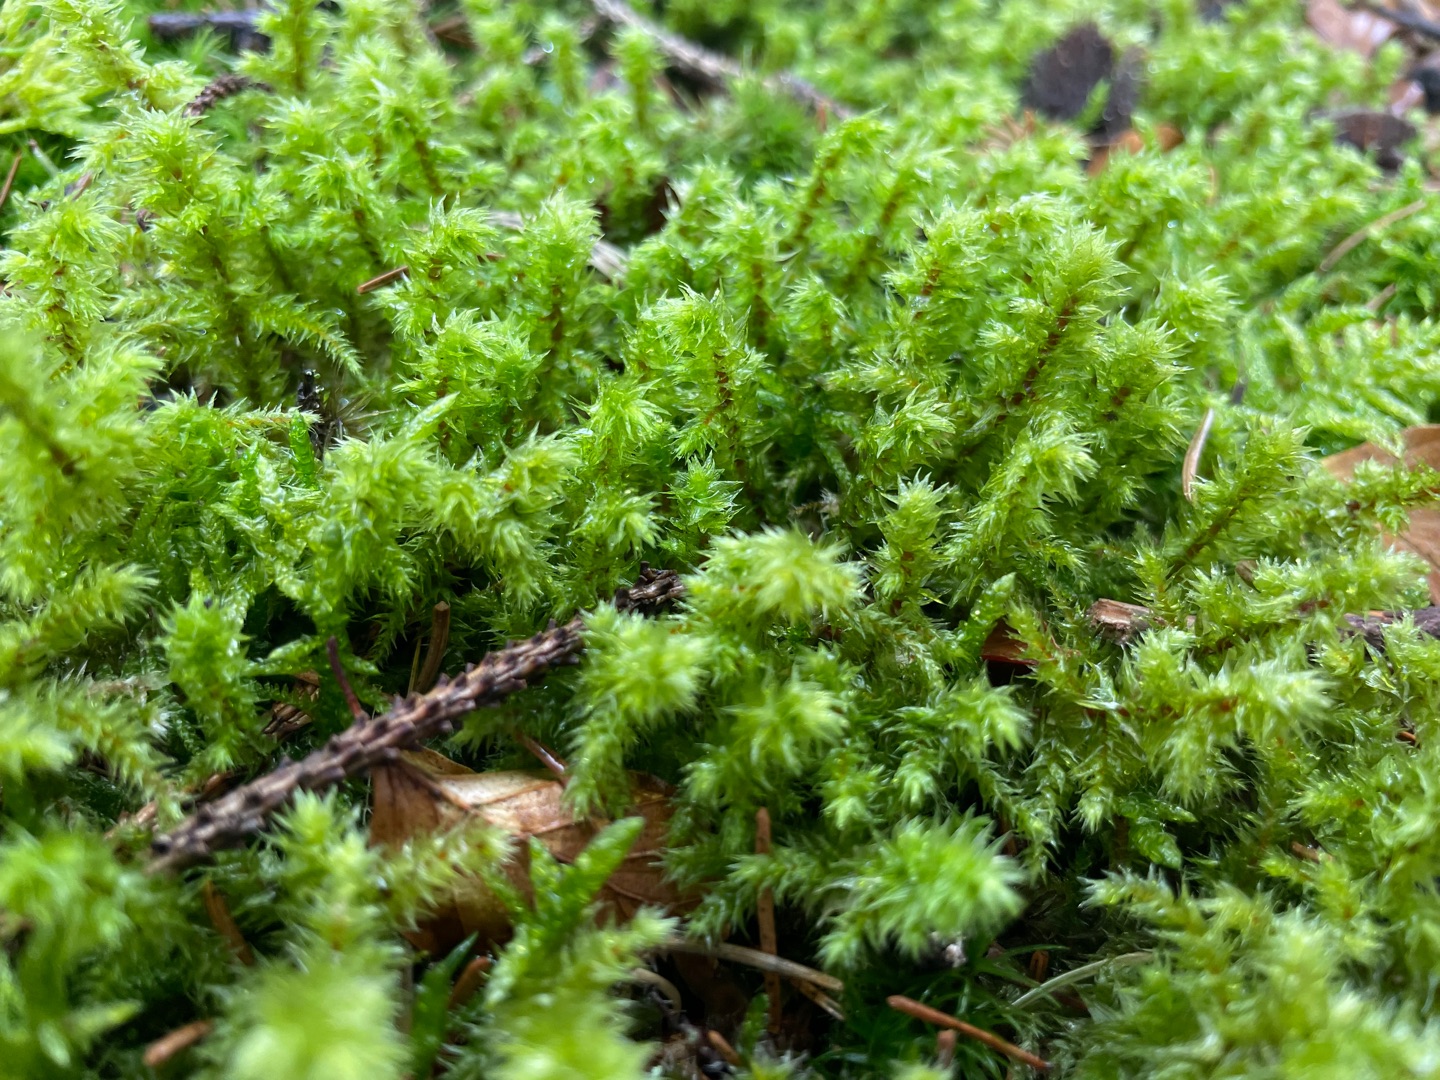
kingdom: Plantae
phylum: Bryophyta
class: Bryopsida
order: Hypnales
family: Hylocomiaceae
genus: Hylocomiadelphus
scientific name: Hylocomiadelphus triquetrus
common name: Stor kransemos
